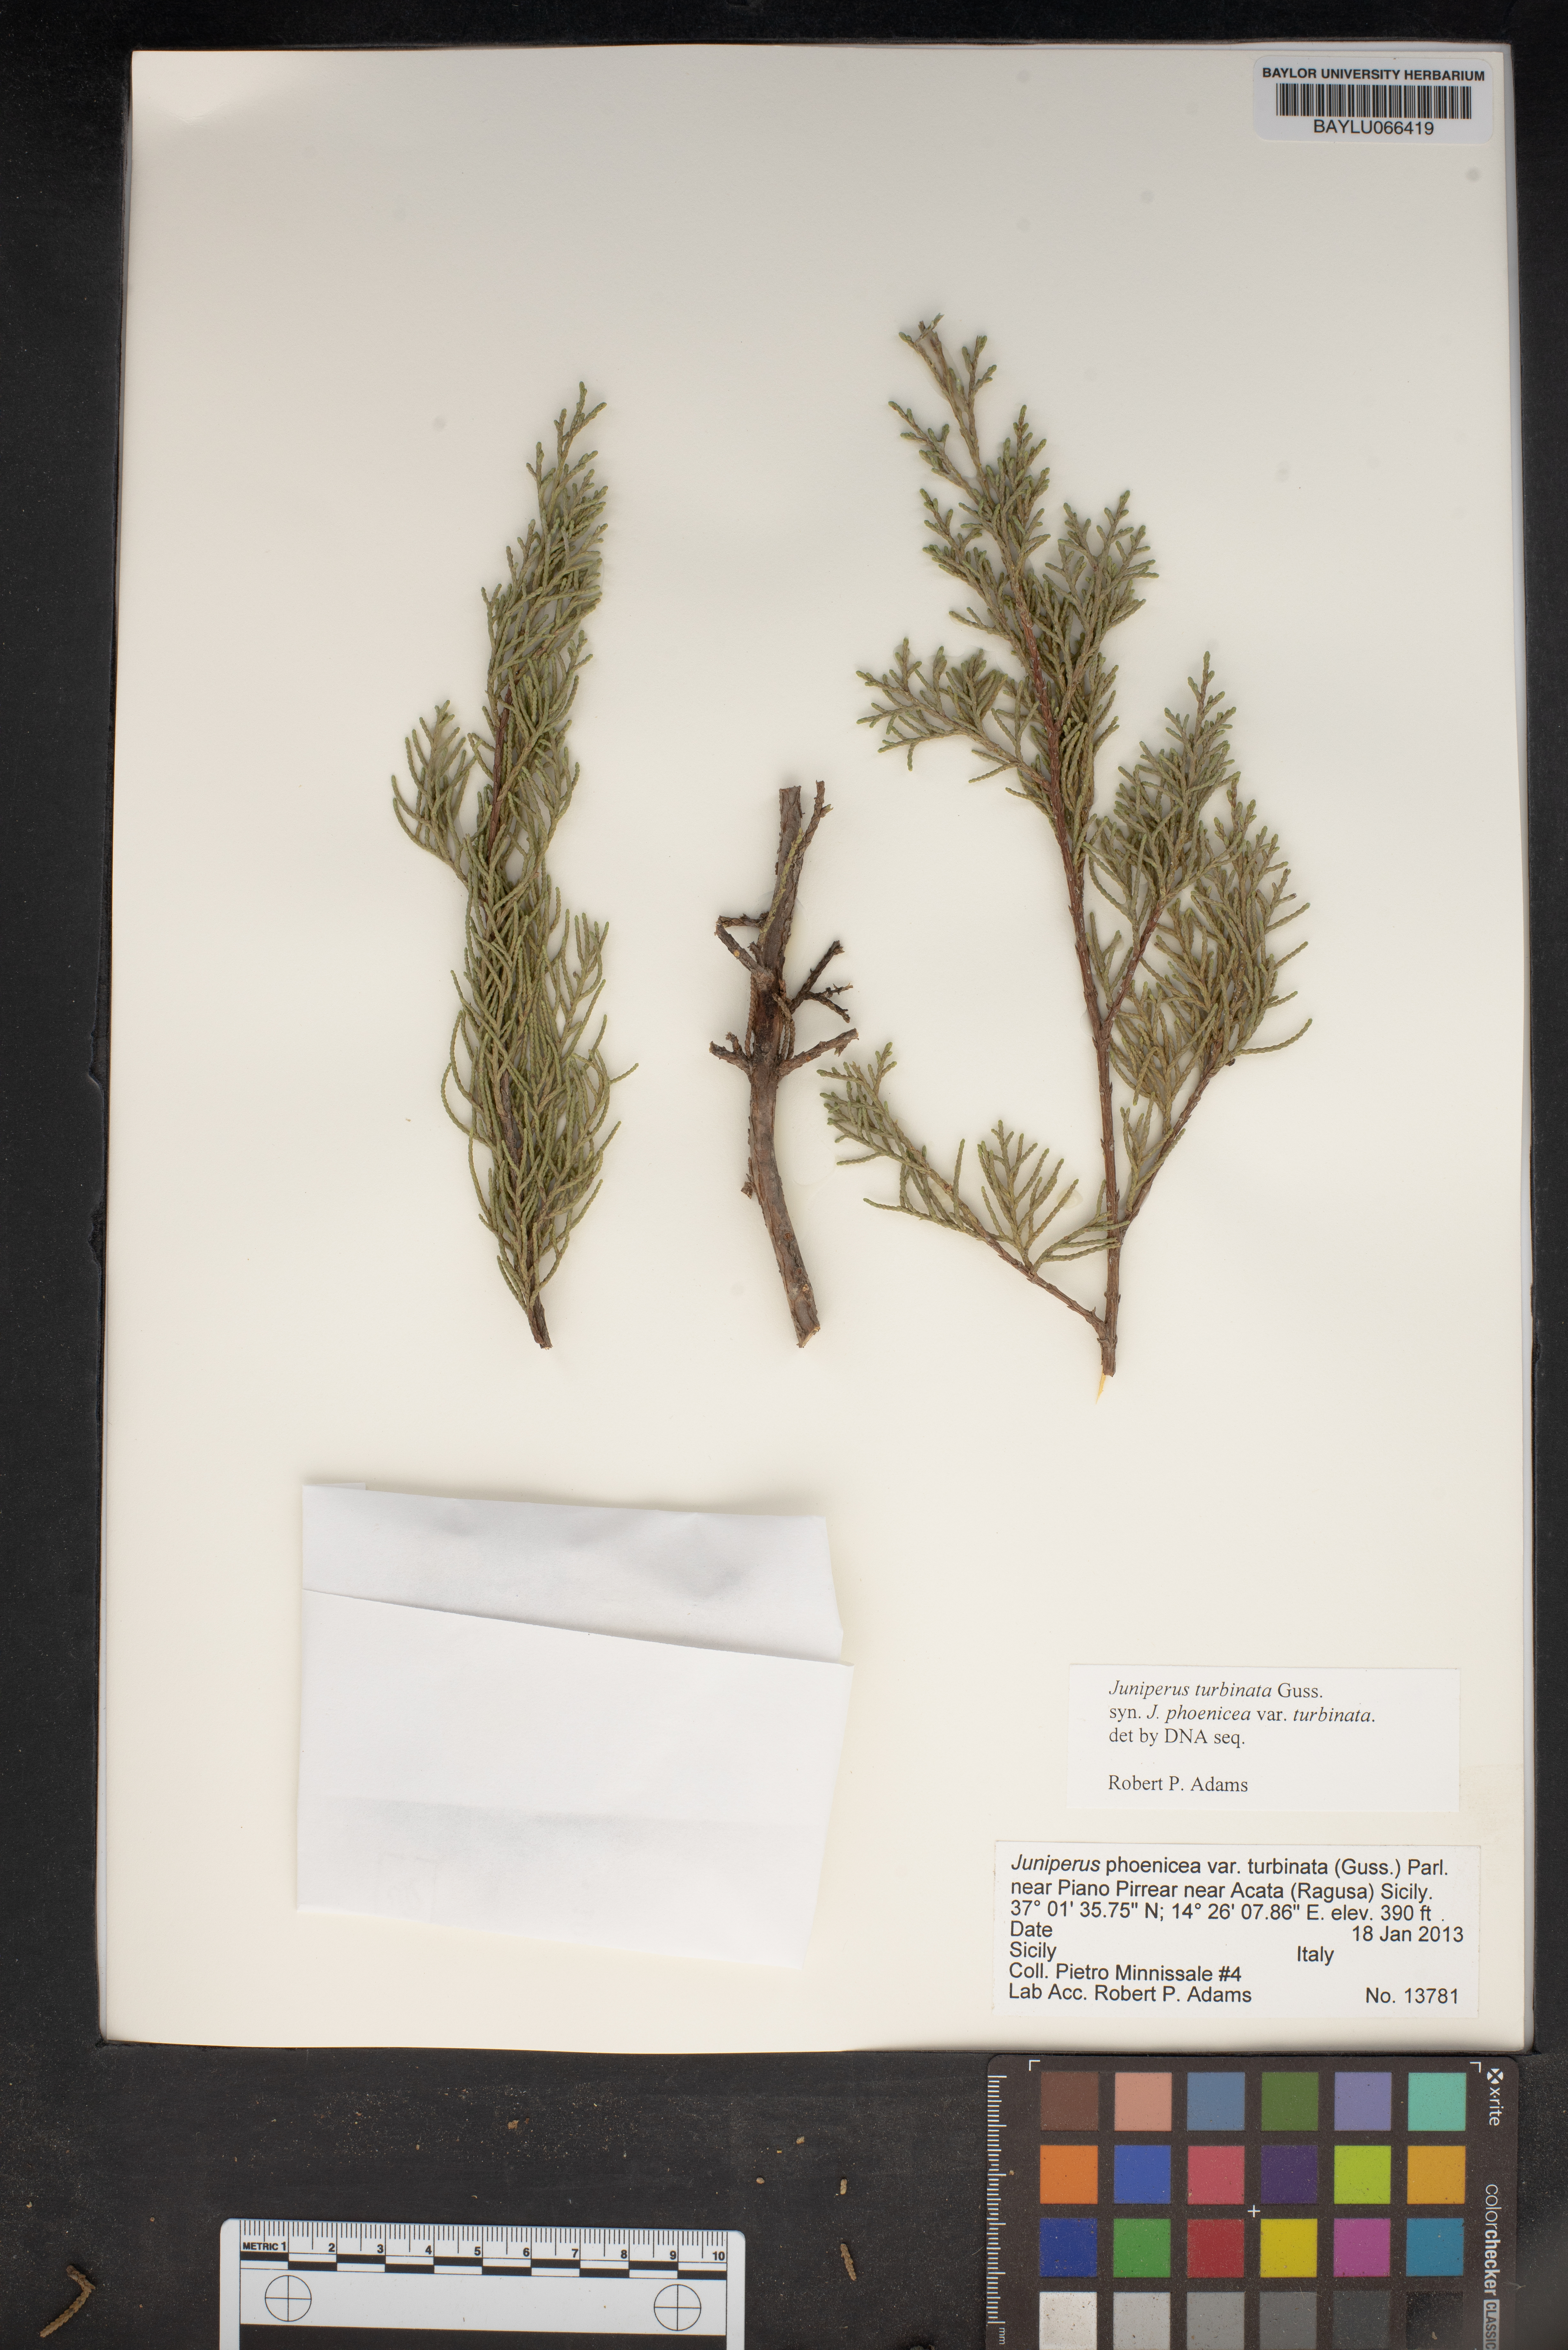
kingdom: Plantae
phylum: Tracheophyta
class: Pinopsida
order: Pinales
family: Cupressaceae
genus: Juniperus
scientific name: Juniperus phoenicea
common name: Phoenician juniper
